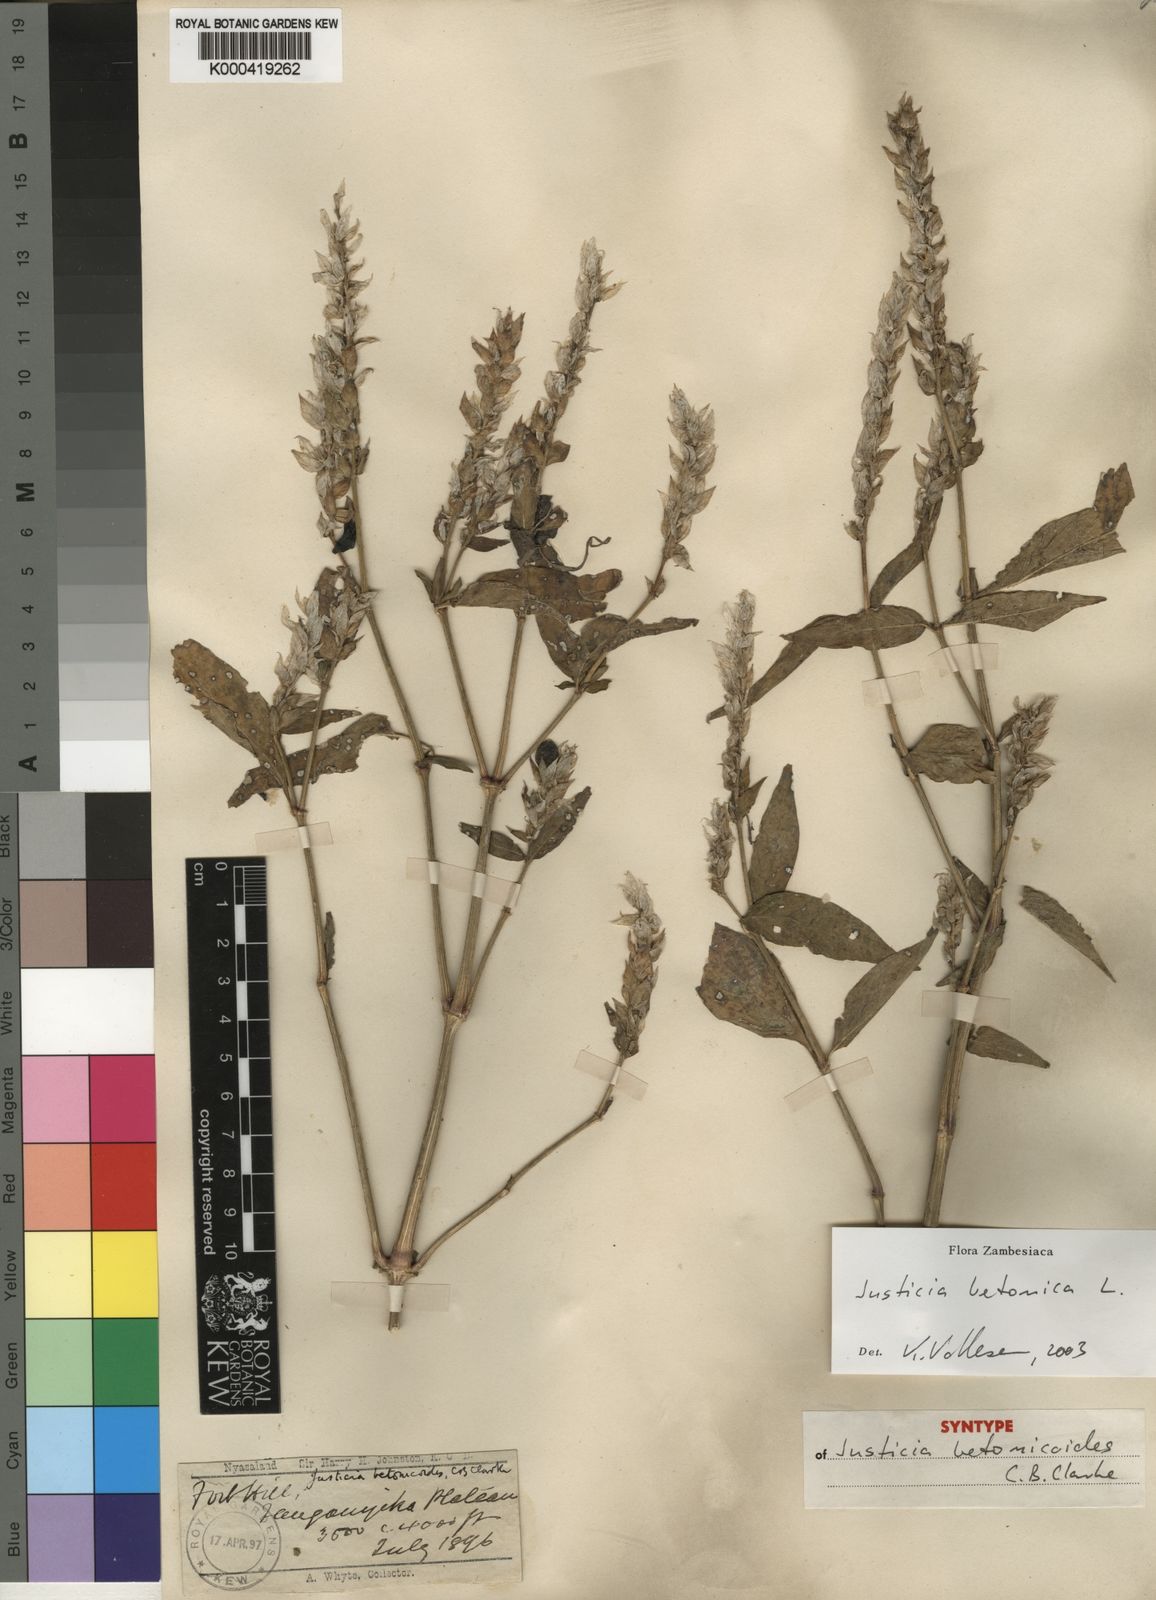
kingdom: Plantae
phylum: Tracheophyta
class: Magnoliopsida
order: Lamiales
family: Acanthaceae
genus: Nicoteba
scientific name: Nicoteba betonica
